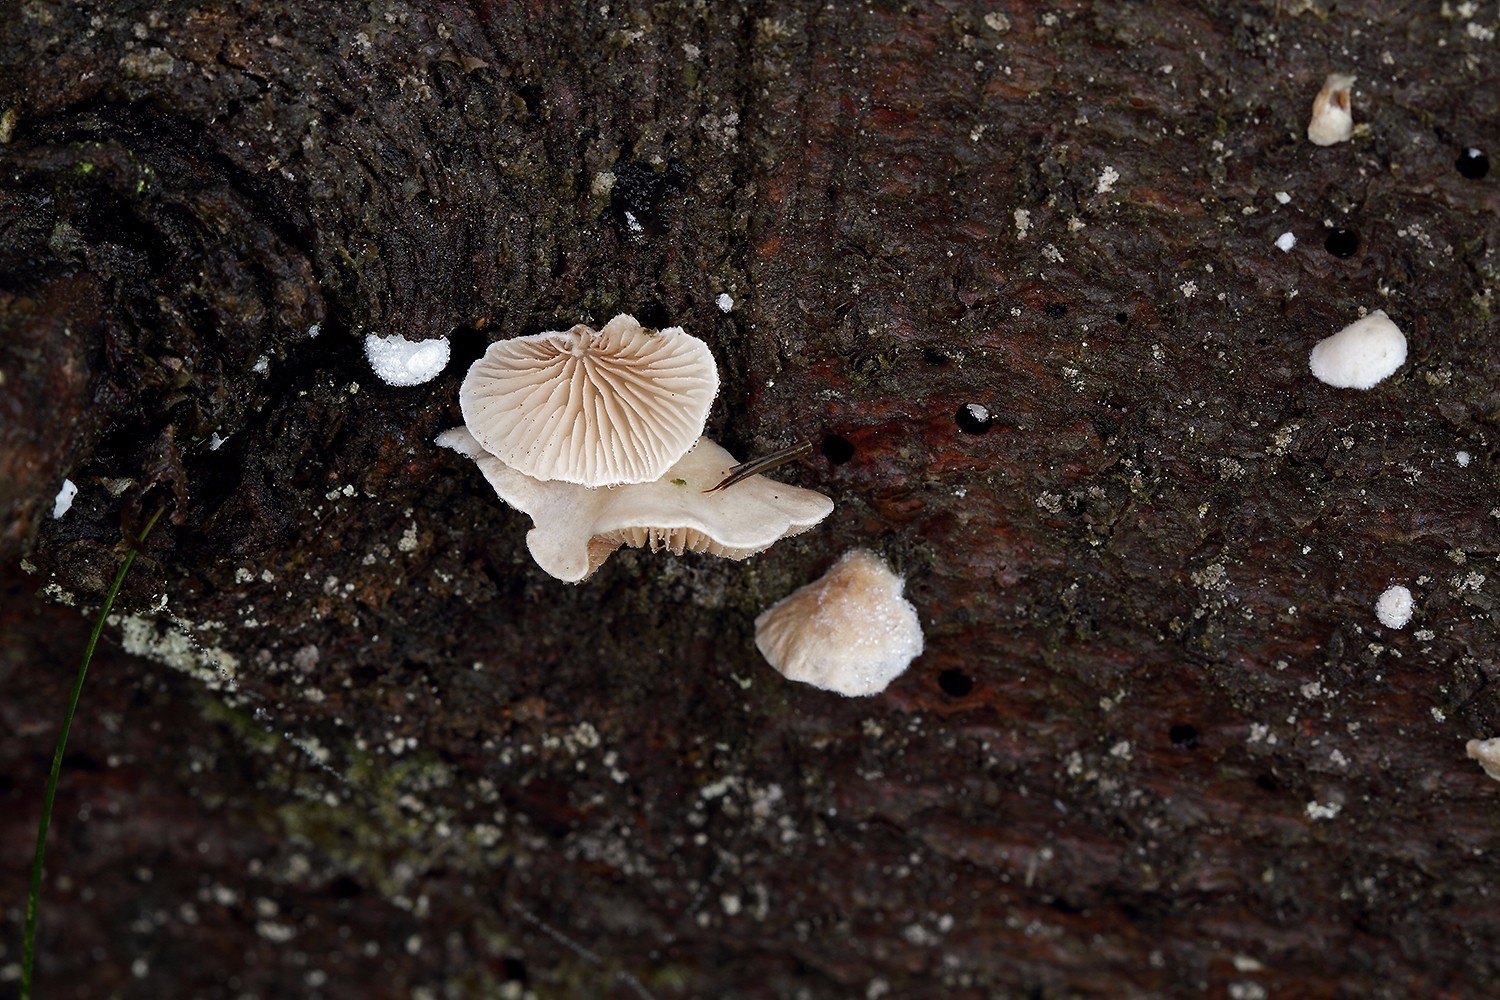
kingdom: Fungi
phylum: Basidiomycota
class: Agaricomycetes
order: Agaricales
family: Crepidotaceae
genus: Crepidotus
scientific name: Crepidotus kubickae
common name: gran-muslingesvamp
